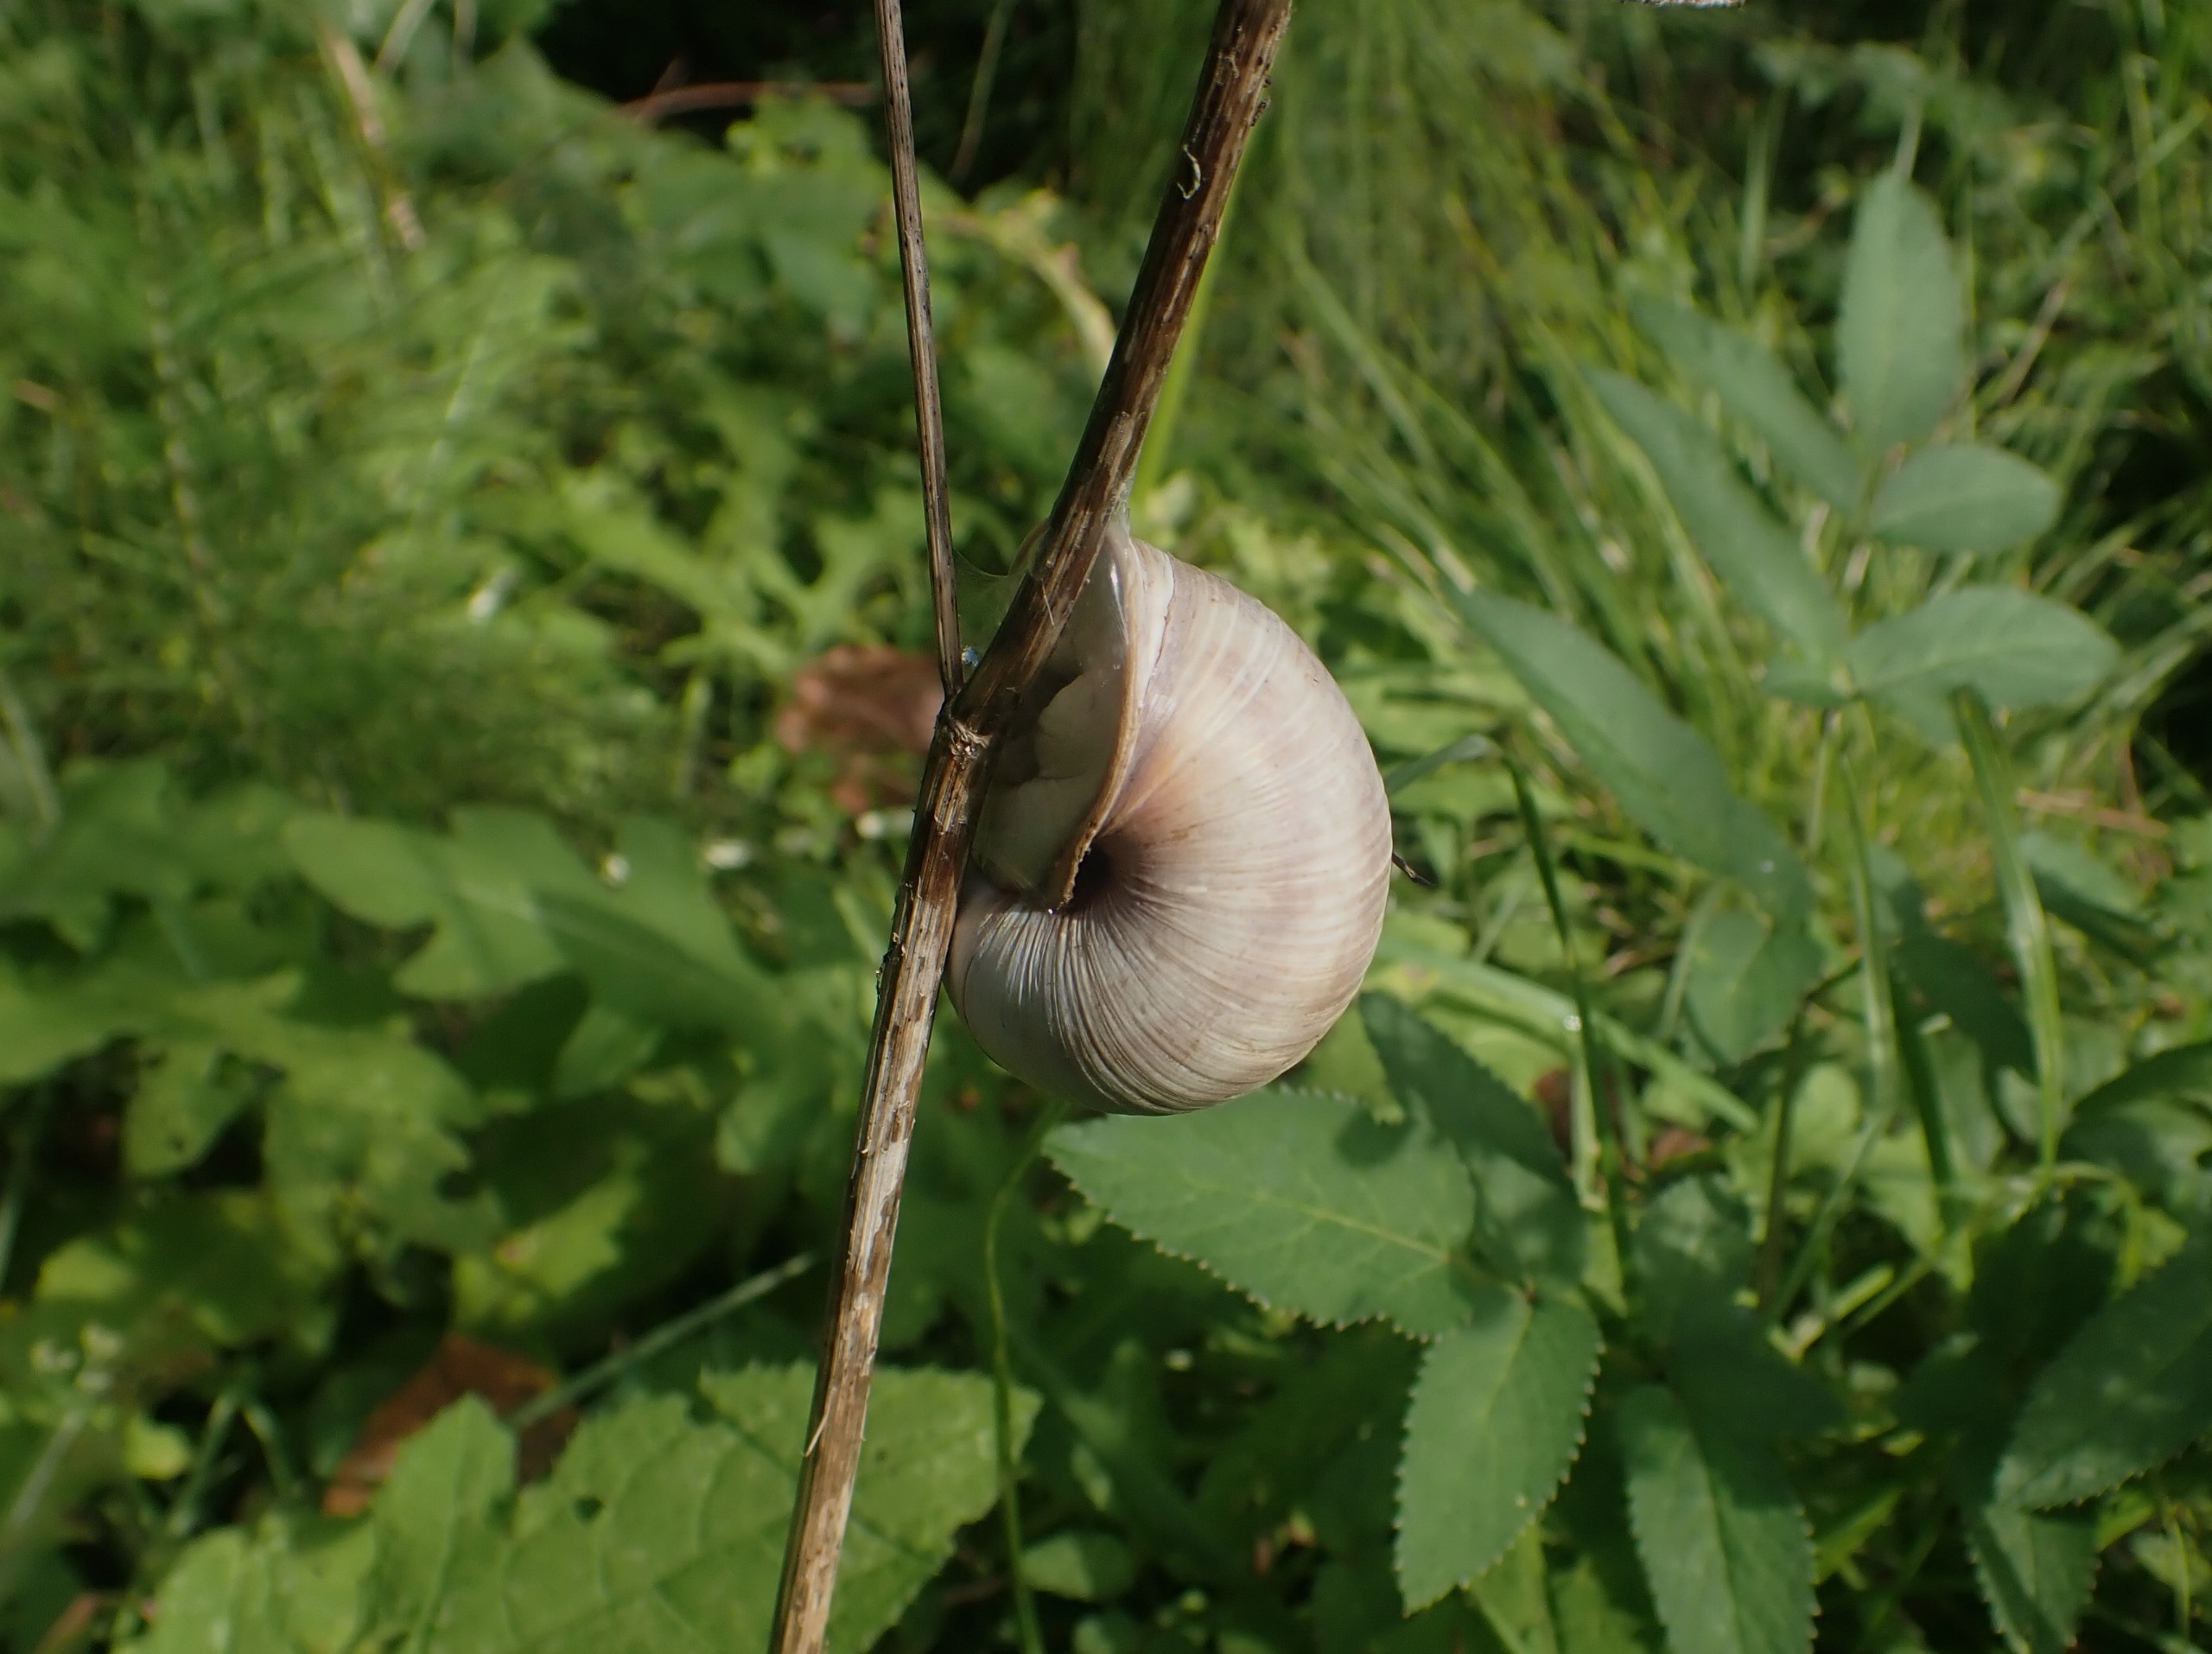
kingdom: Animalia
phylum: Mollusca
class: Gastropoda
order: Stylommatophora
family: Helicidae
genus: Helix
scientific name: Helix pomatia
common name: Vinbjergsnegl
